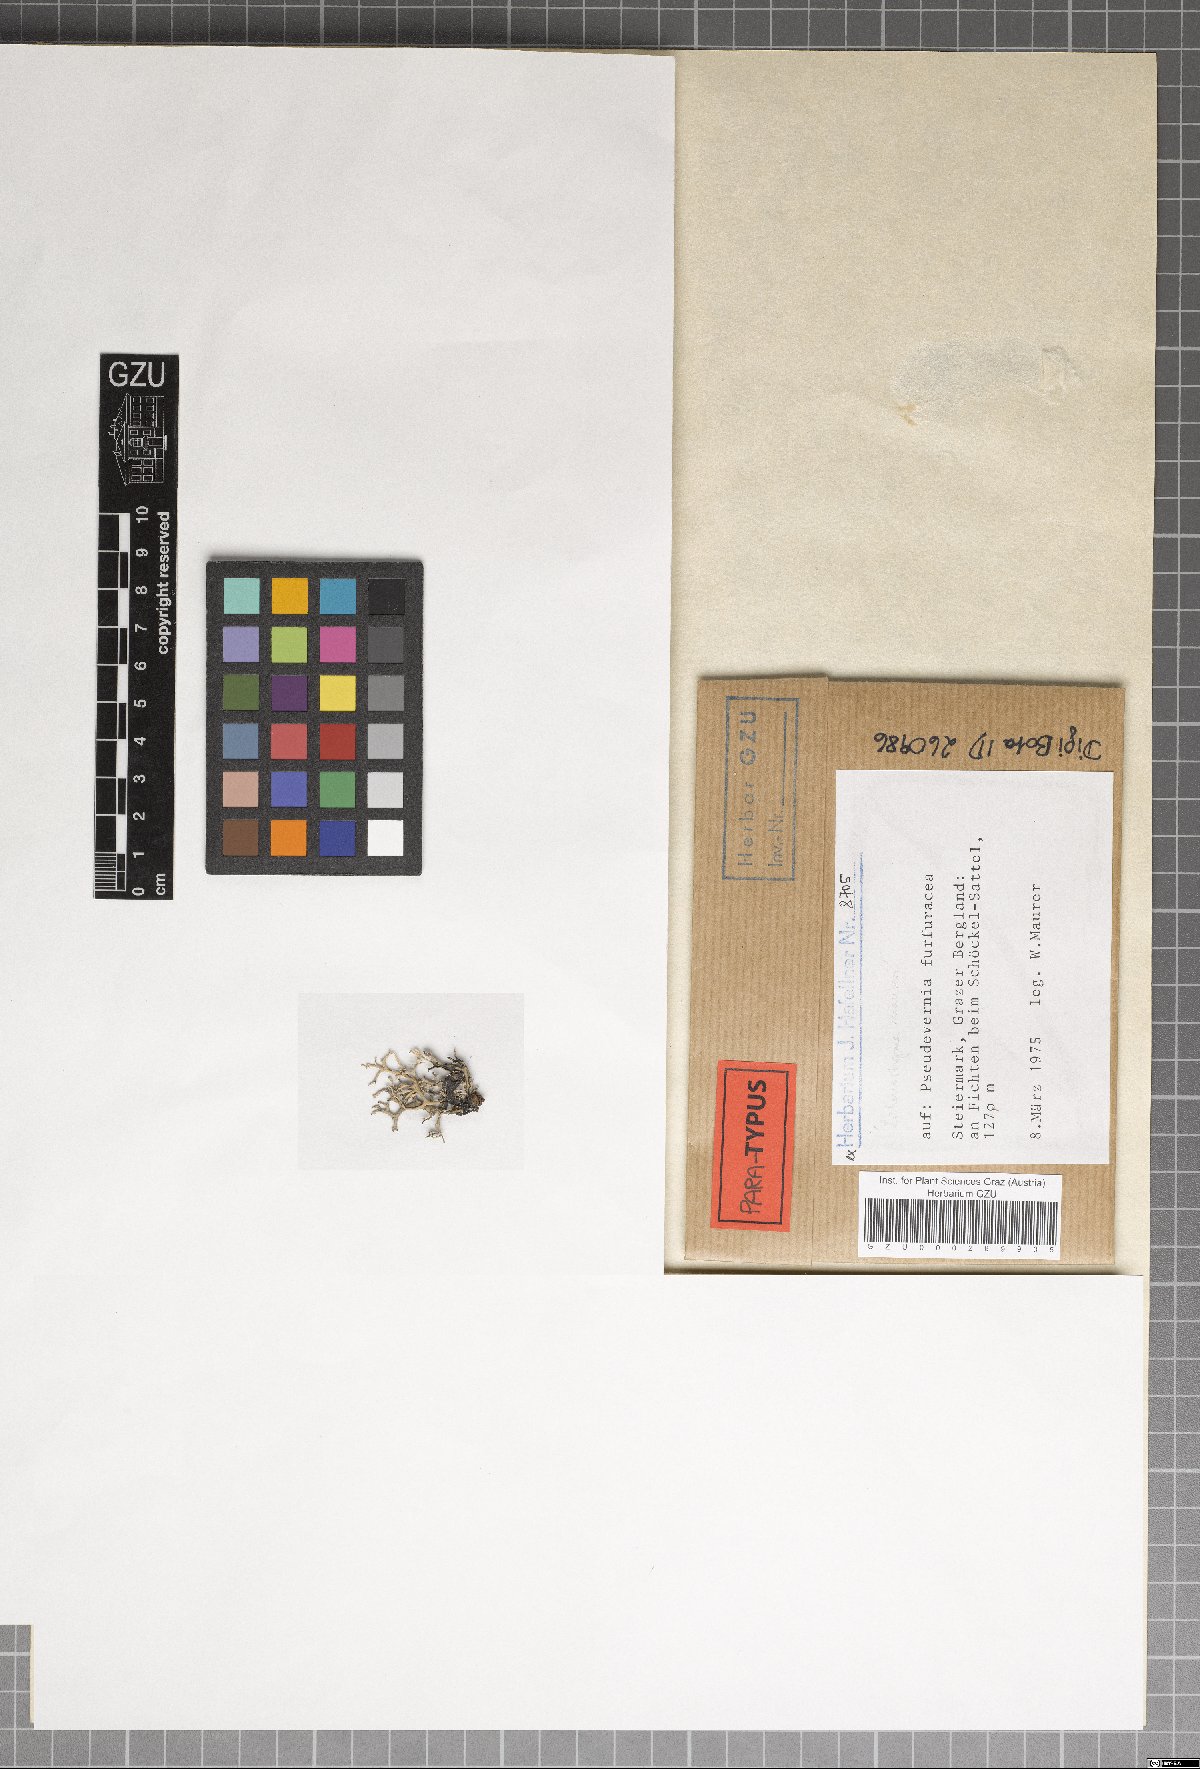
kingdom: Fungi
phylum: Ascomycota
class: Arthoniomycetes
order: Lichenostigmatales
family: Phaeococcomycetaceae
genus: Lichenostigma
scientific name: Lichenostigma maureri
